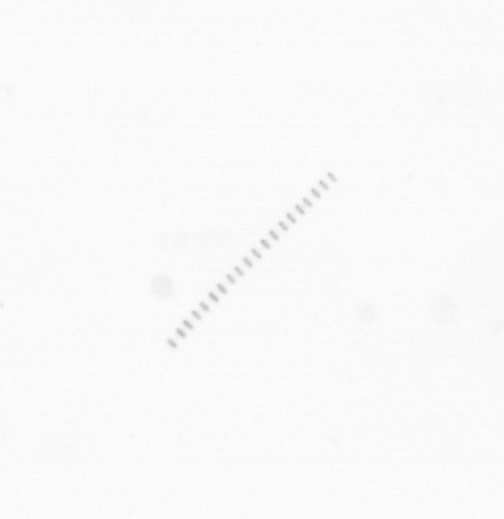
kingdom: Chromista
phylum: Ochrophyta
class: Bacillariophyceae
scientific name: Bacillariophyceae
